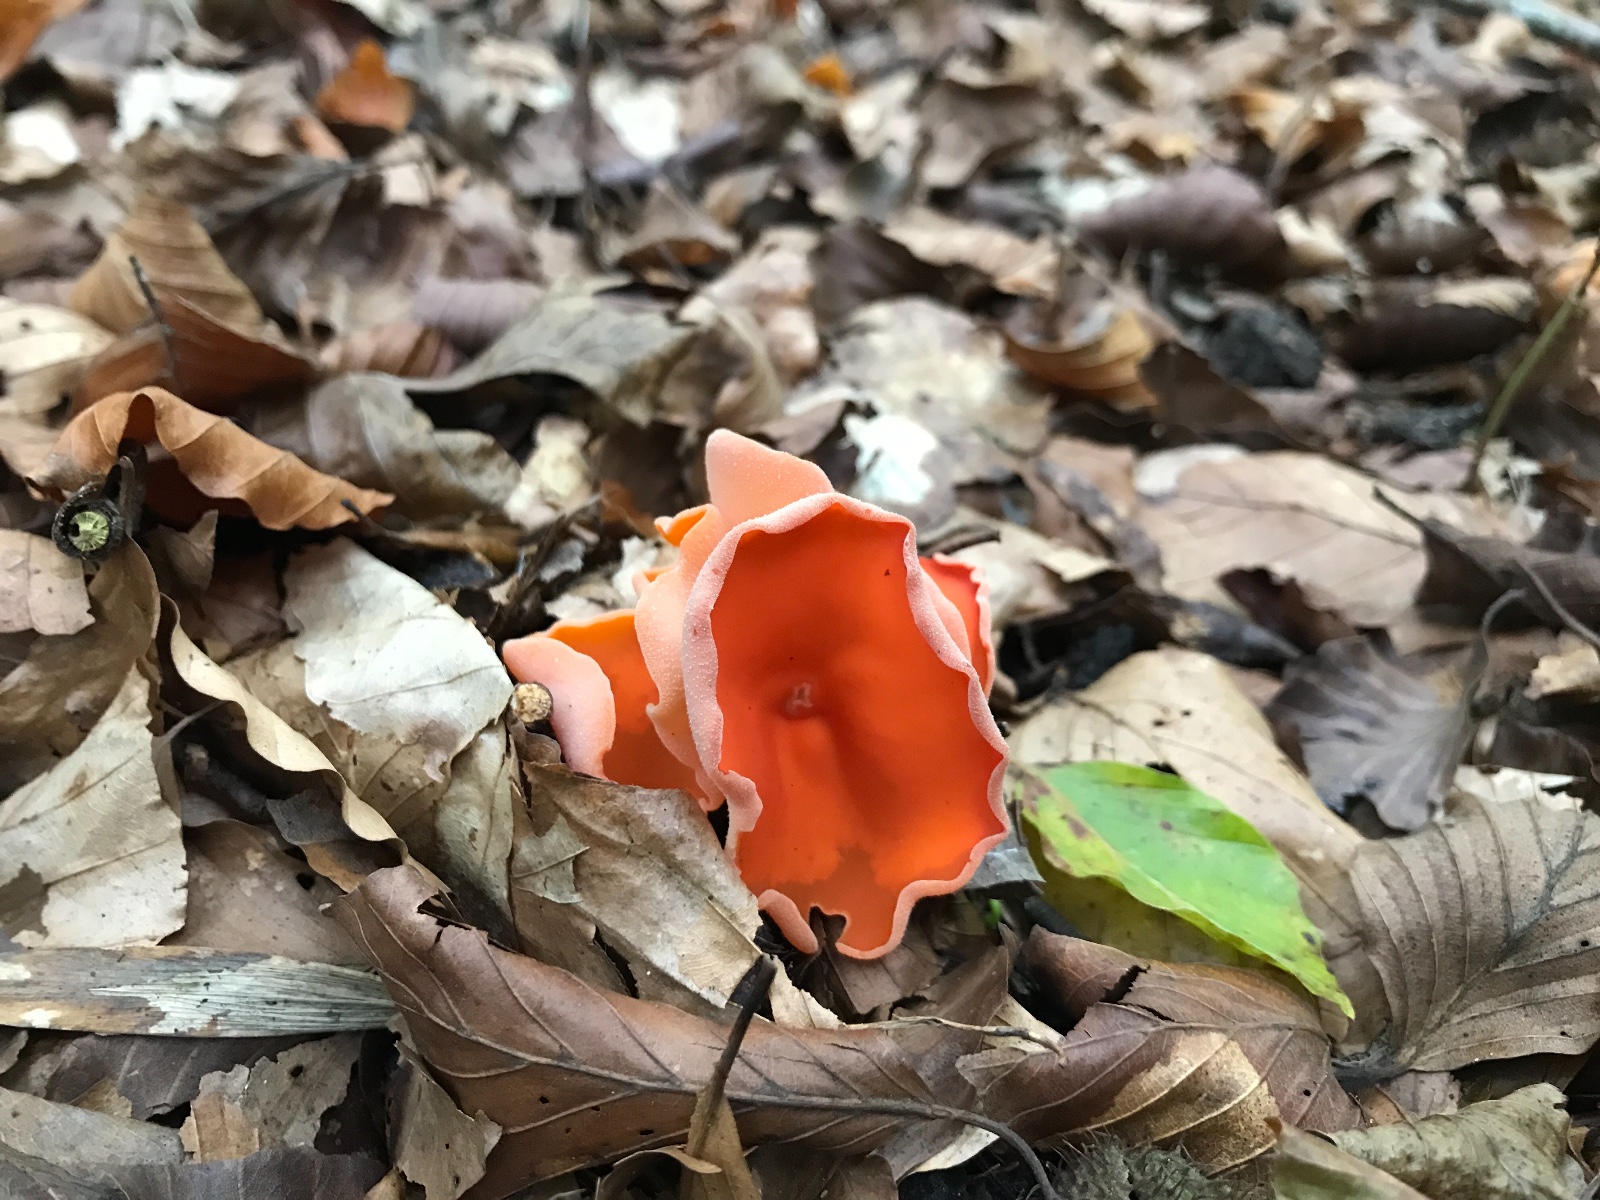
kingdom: Fungi
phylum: Ascomycota
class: Pezizomycetes
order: Pezizales
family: Pyronemataceae
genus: Aleuria
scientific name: Aleuria aurantia
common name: almindelig orangebæger
